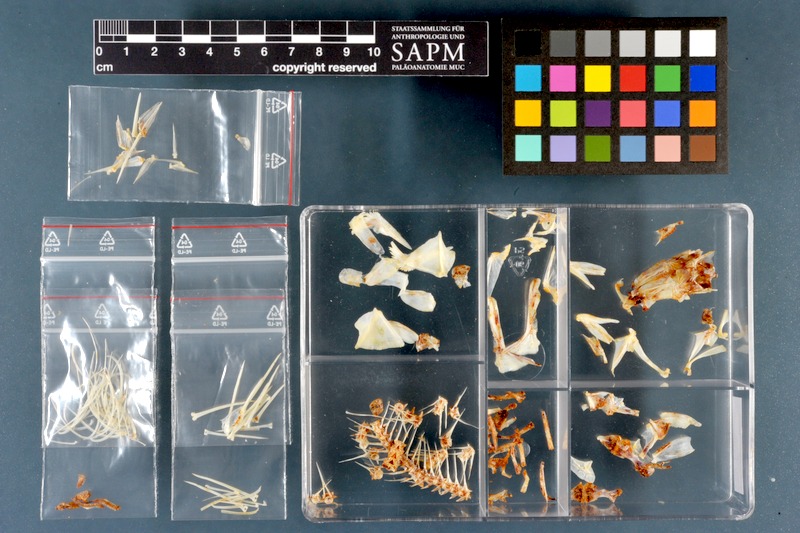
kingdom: Animalia
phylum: Chordata
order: Perciformes
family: Percidae
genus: Perca
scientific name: Perca fluviatilis
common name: Perch
